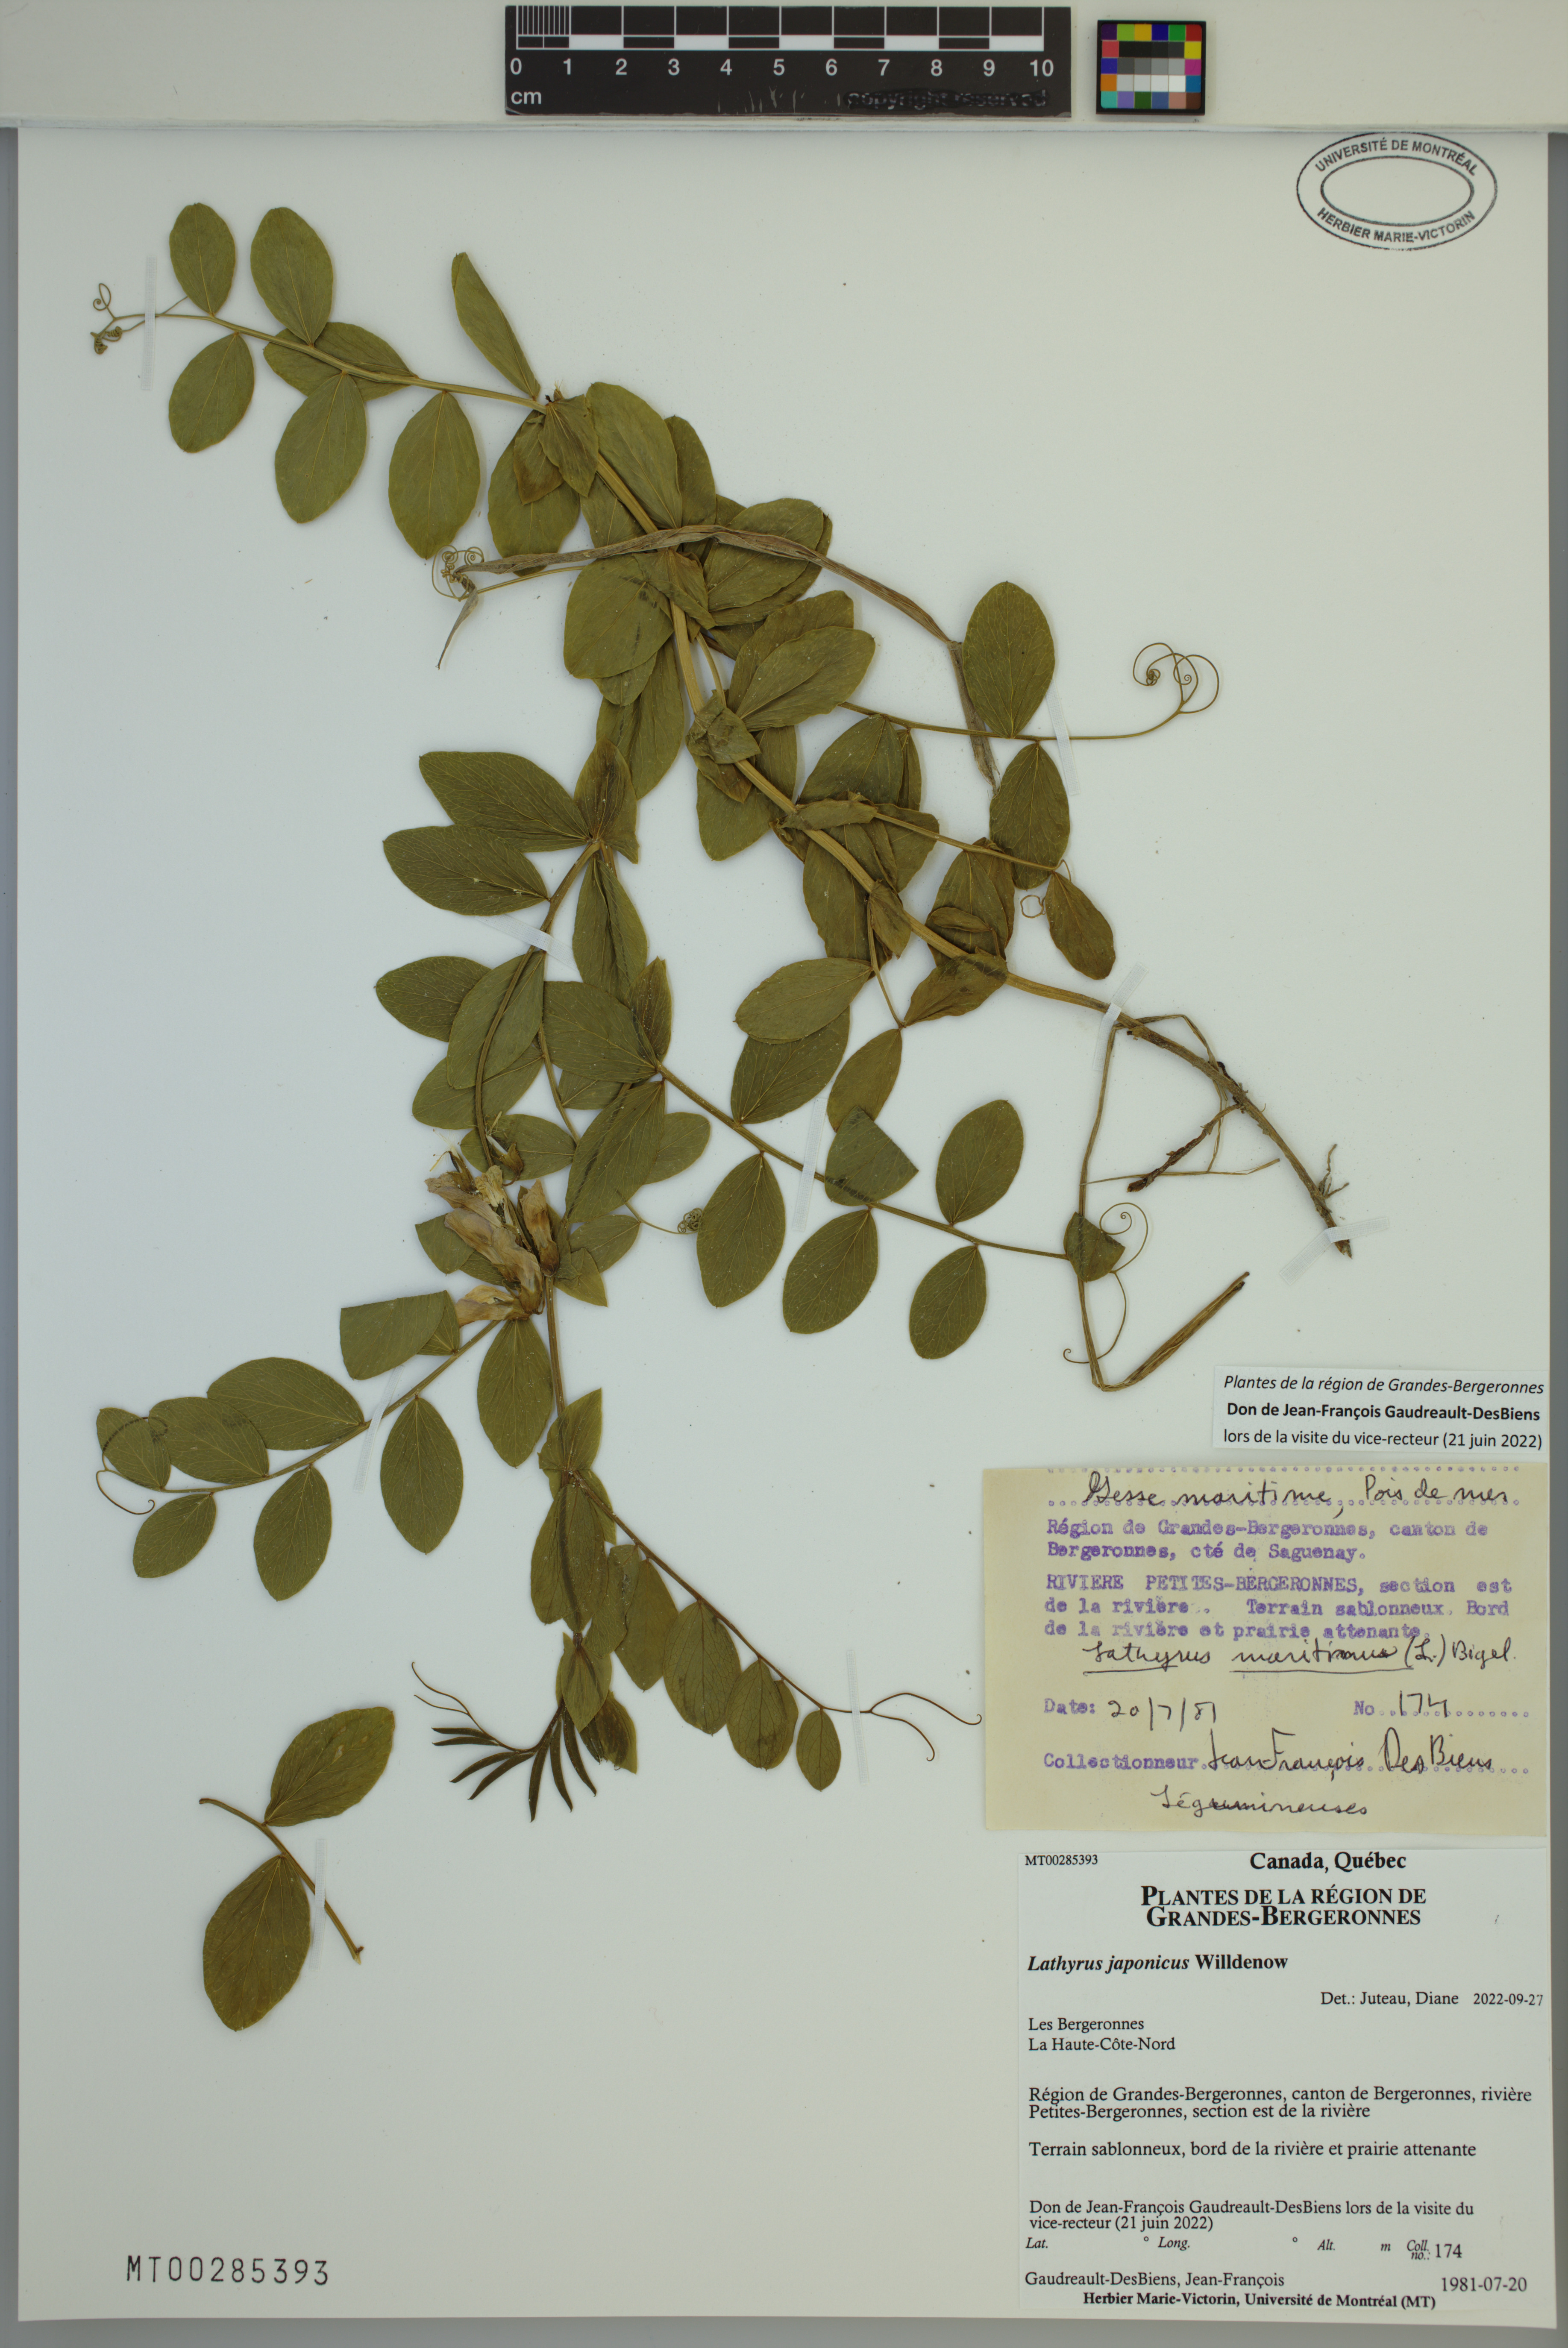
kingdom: Plantae
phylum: Tracheophyta
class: Magnoliopsida
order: Fabales
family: Fabaceae
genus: Lathyrus
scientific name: Lathyrus japonicus
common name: Sea pea
